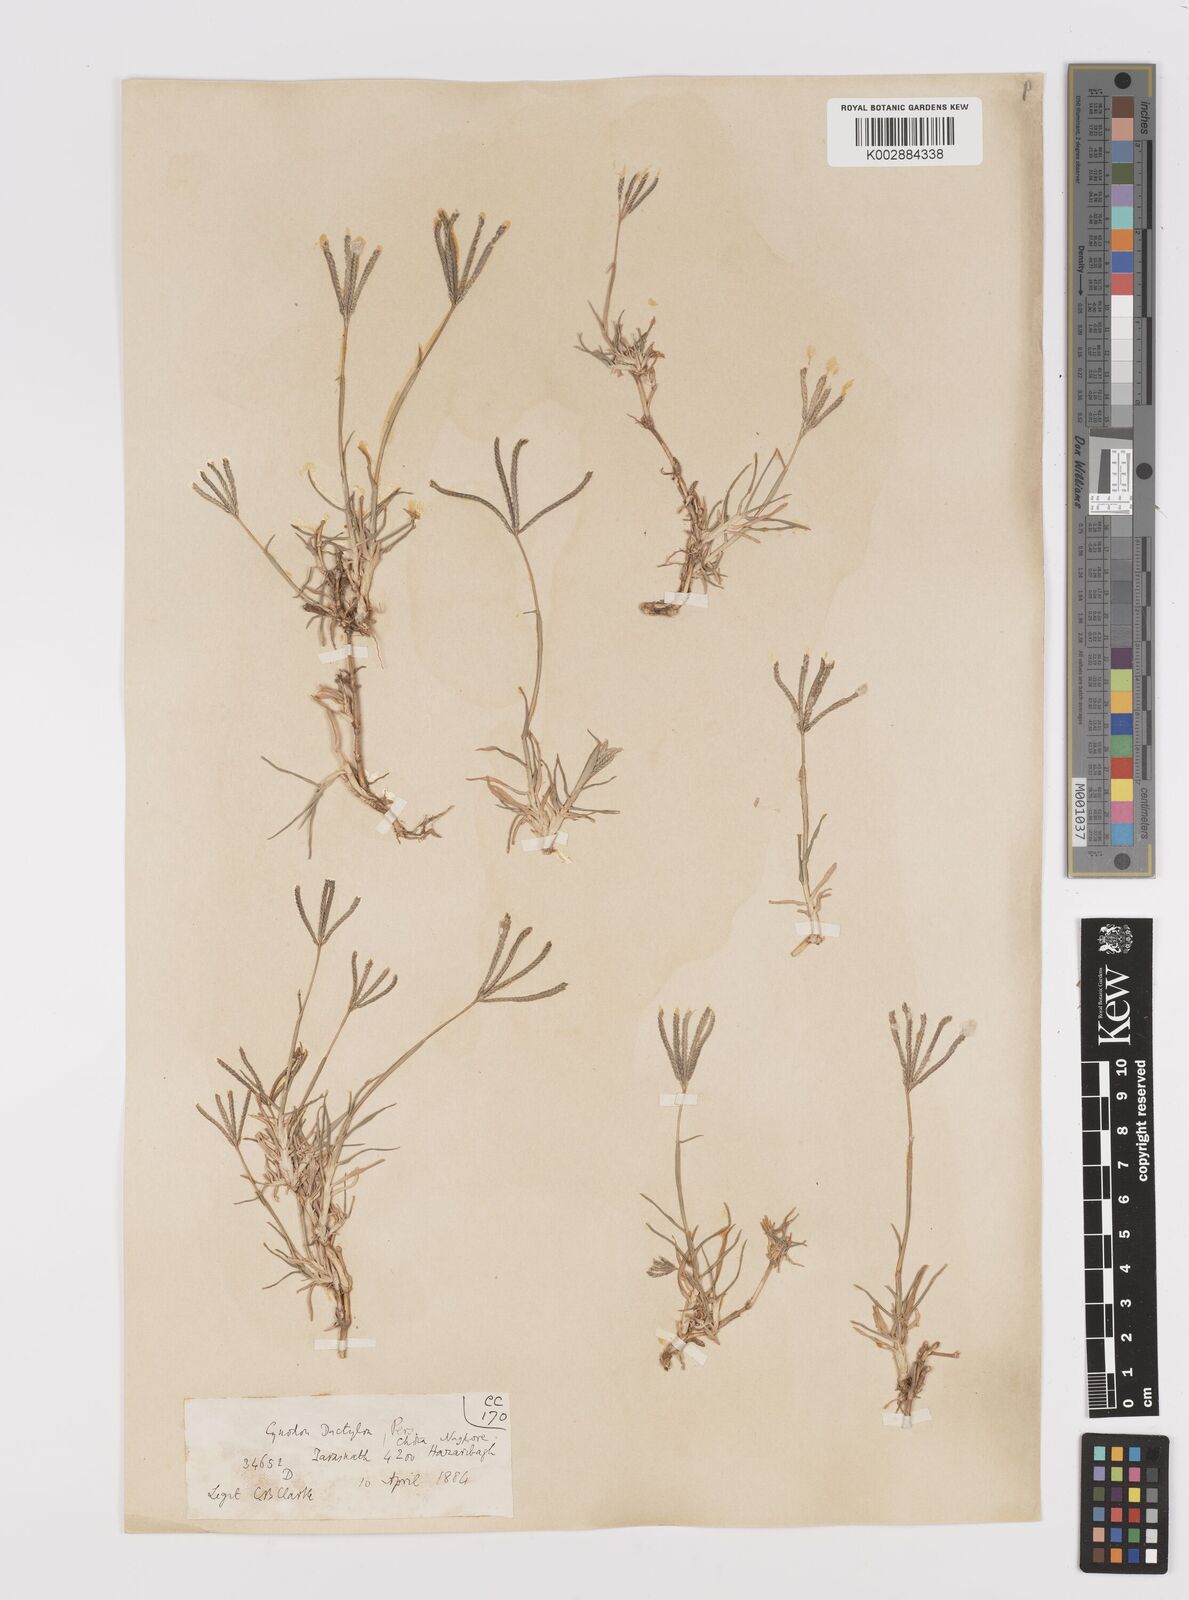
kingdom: Plantae
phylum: Tracheophyta
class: Liliopsida
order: Poales
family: Poaceae
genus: Cynodon
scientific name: Cynodon dactylon
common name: Bermuda grass
